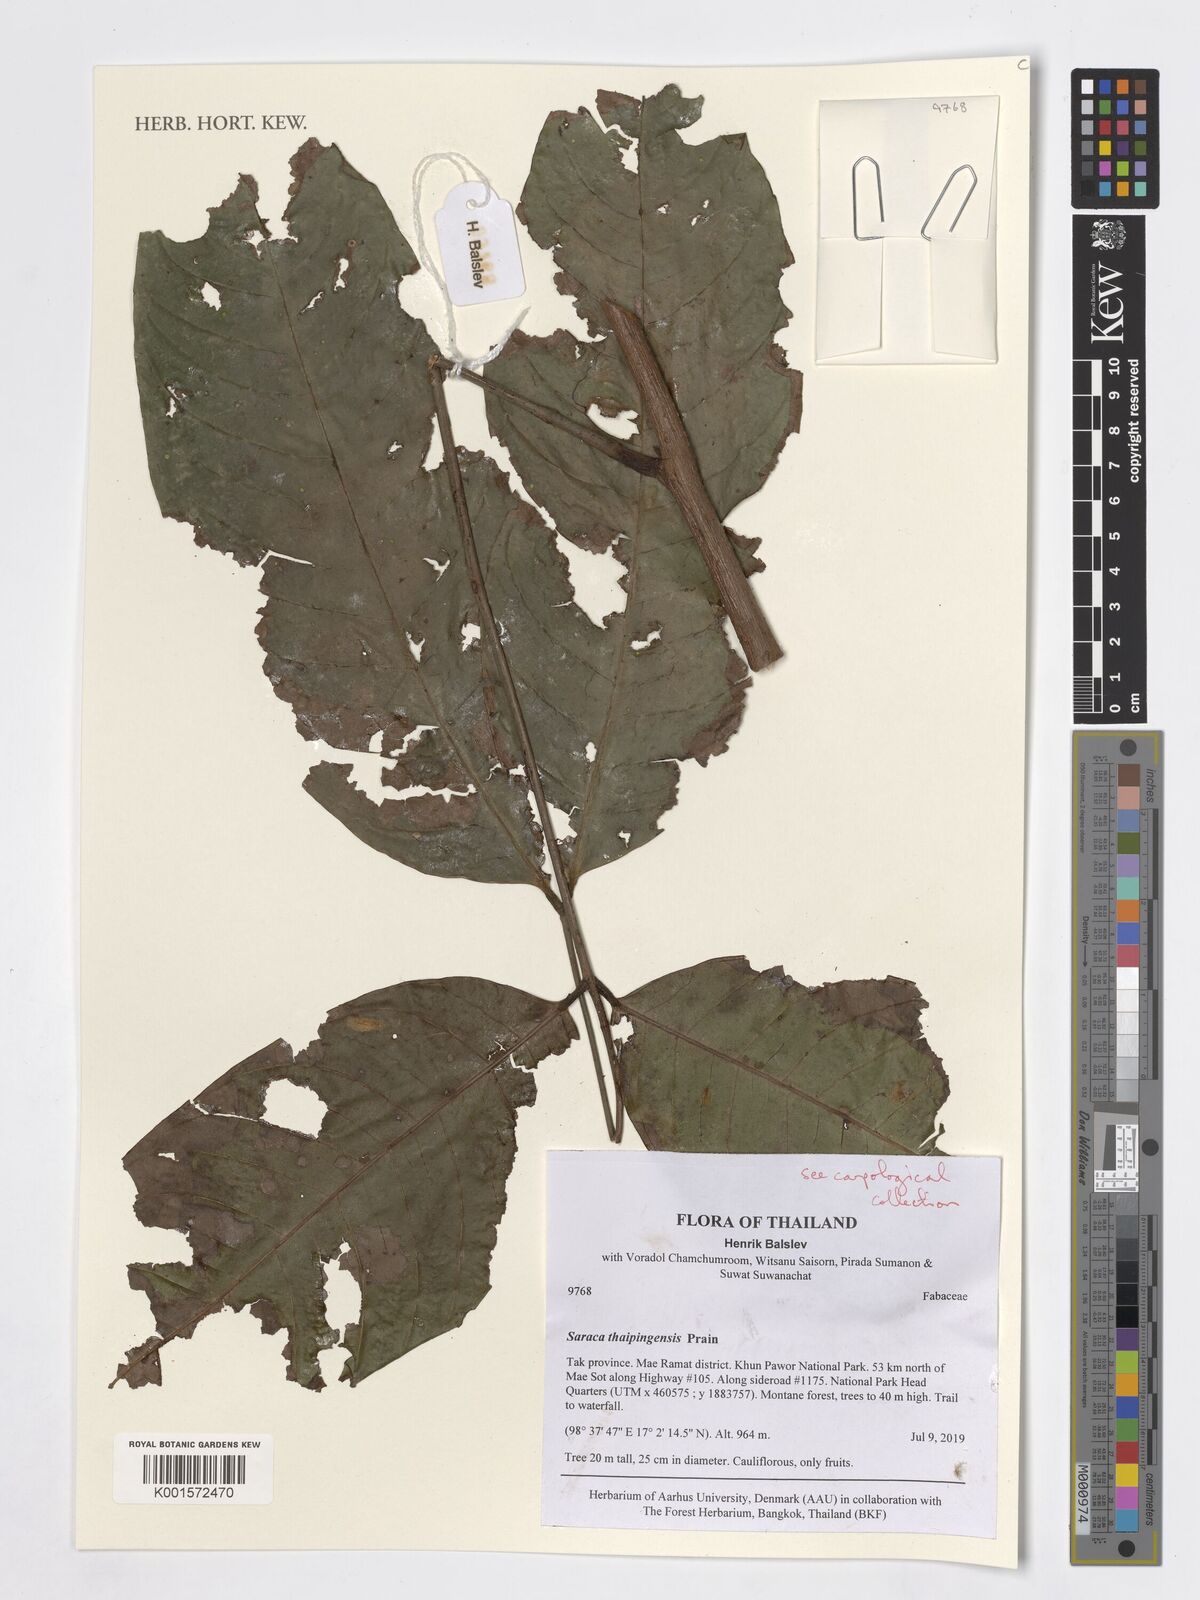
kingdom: Plantae
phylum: Tracheophyta
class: Magnoliopsida
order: Fabales
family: Fabaceae
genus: Saraca
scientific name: Saraca thaipingensis
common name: Yellow saraca
